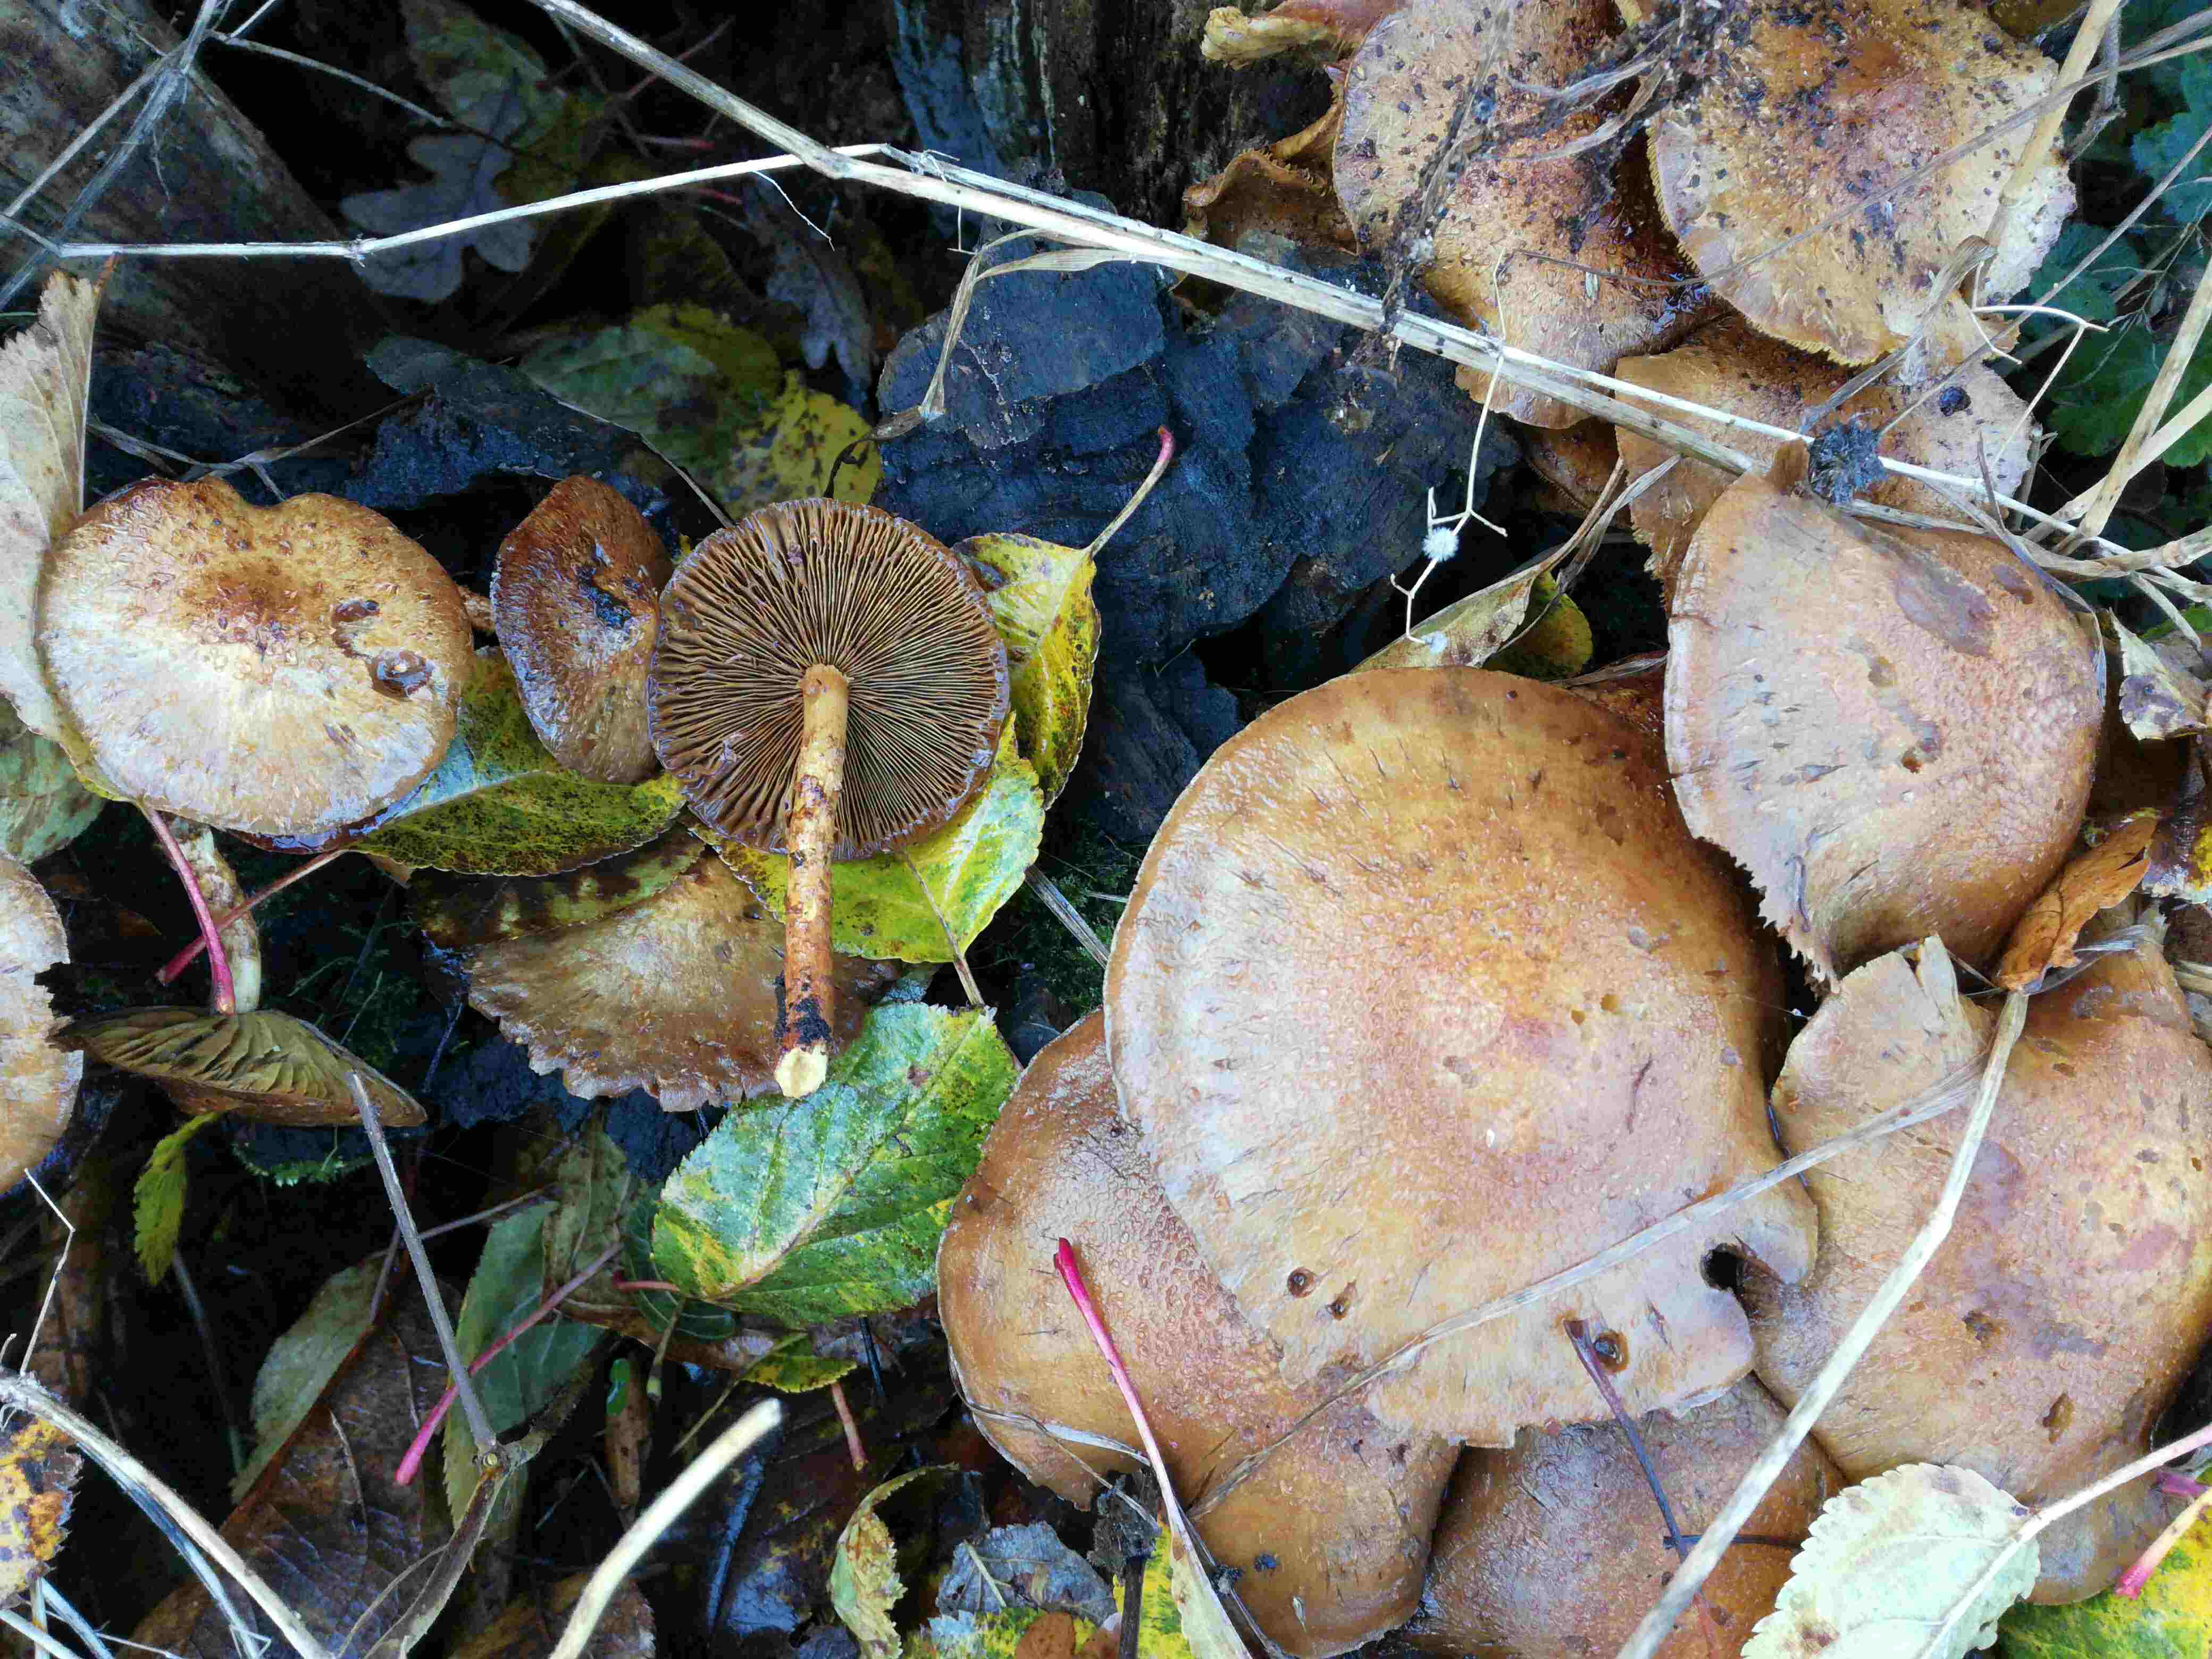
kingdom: Fungi
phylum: Basidiomycota
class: Agaricomycetes
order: Agaricales
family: Strophariaceae
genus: Pholiota
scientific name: Pholiota
